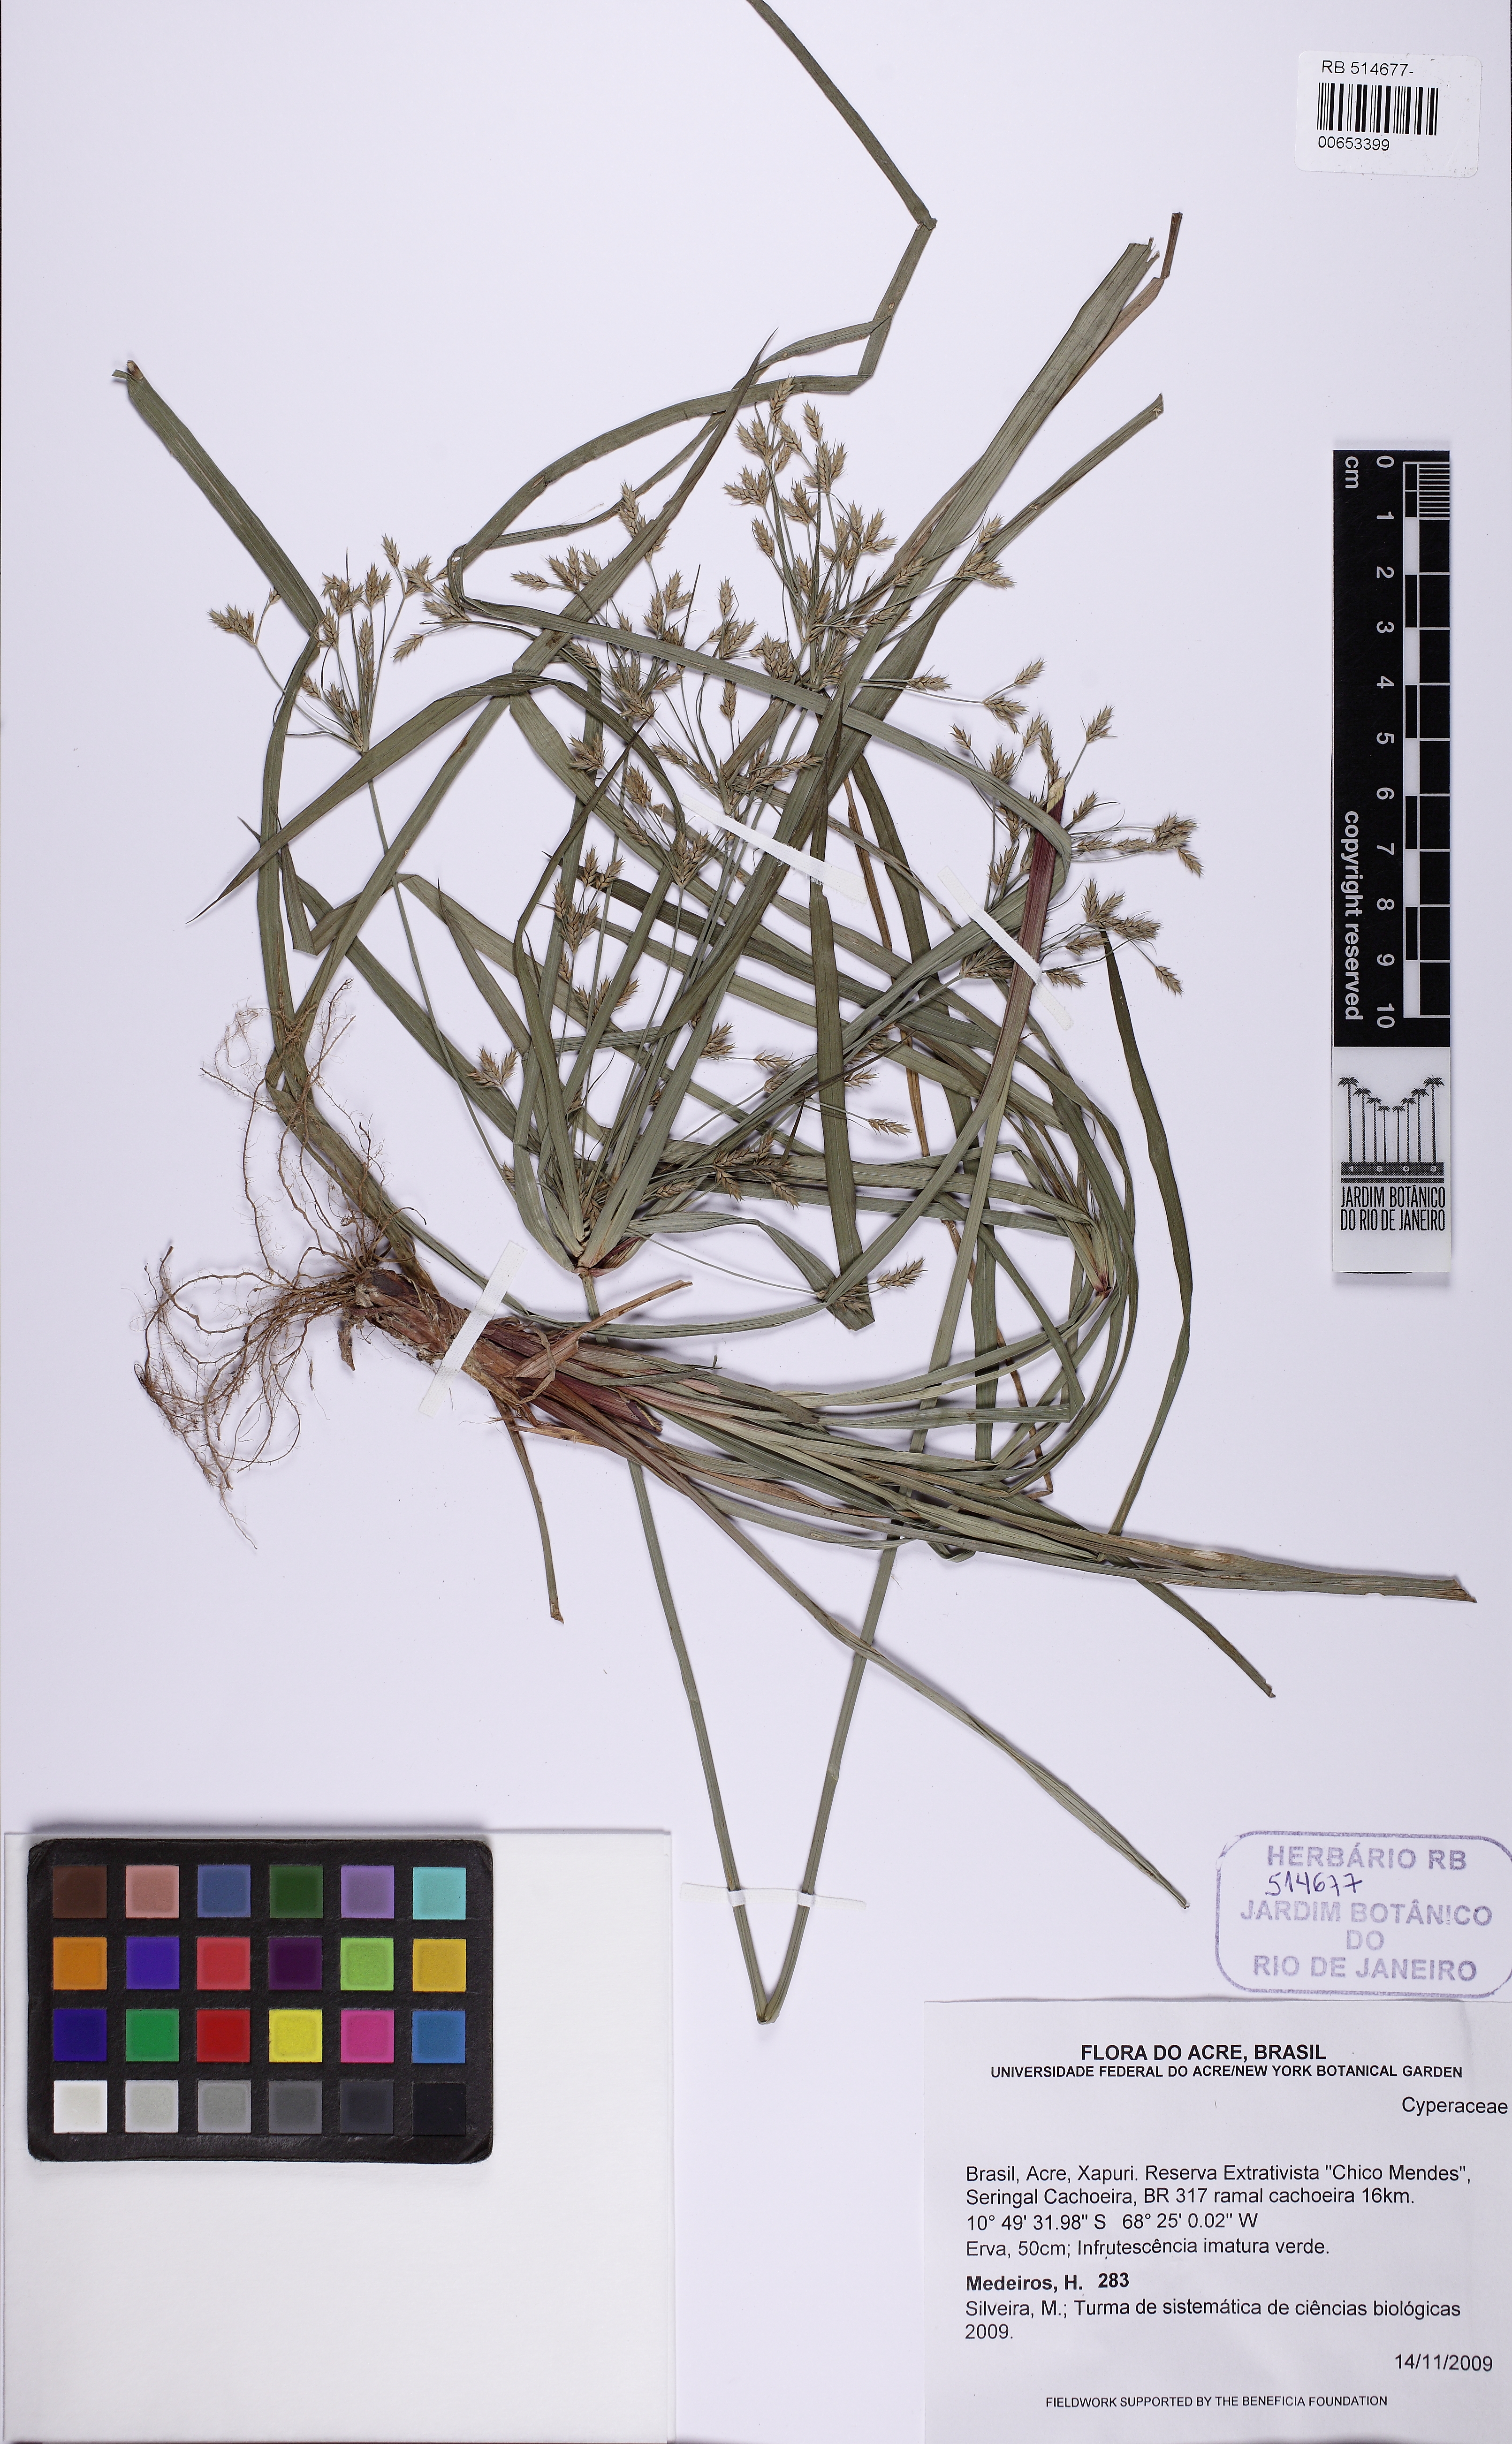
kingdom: Plantae
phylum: Tracheophyta
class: Liliopsida
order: Poales
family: Cyperaceae
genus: Cyperus
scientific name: Cyperus chalaranthus
